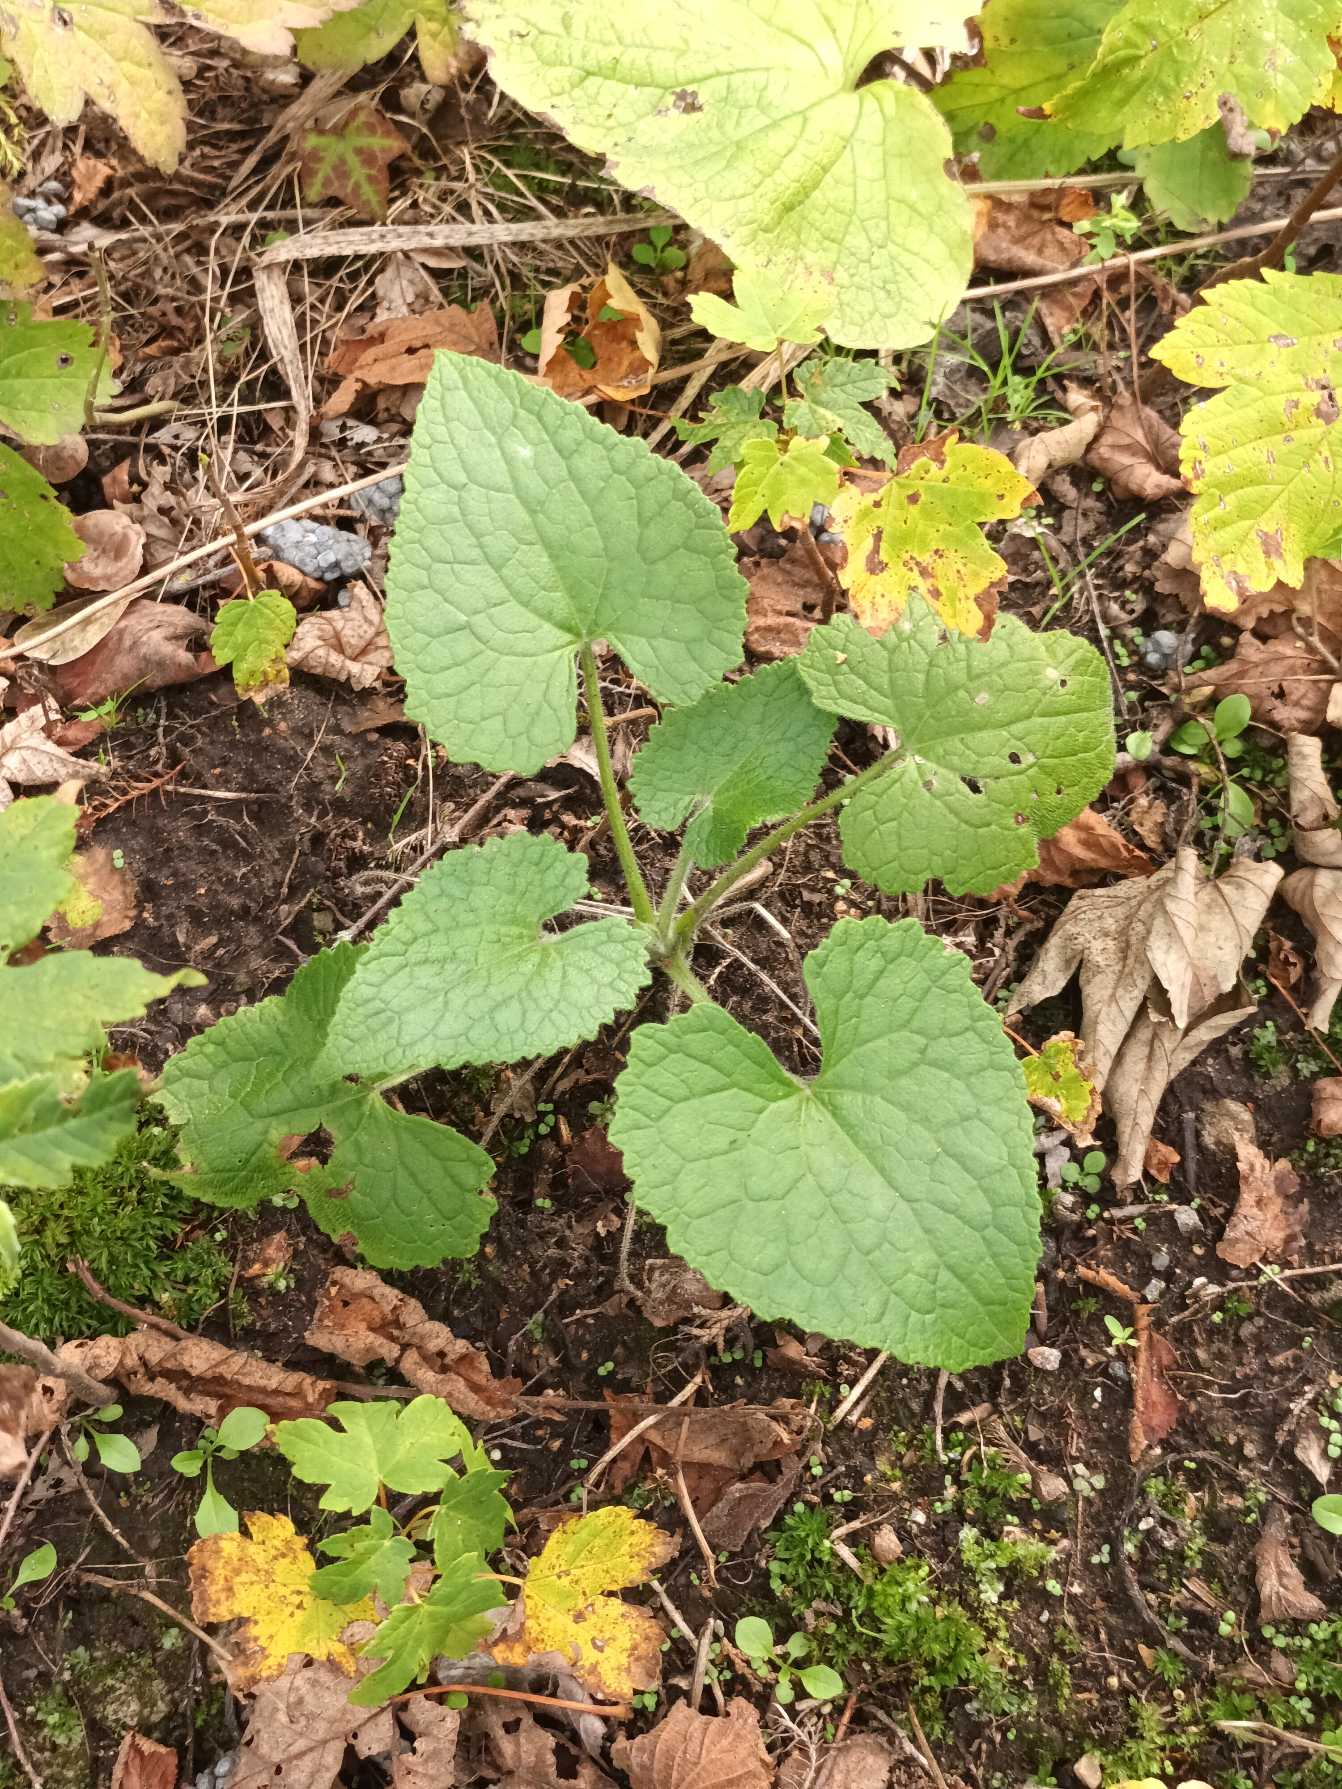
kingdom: Plantae
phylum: Tracheophyta
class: Magnoliopsida
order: Brassicales
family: Brassicaceae
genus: Lunaria
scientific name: Lunaria annua
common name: Judaspenge
